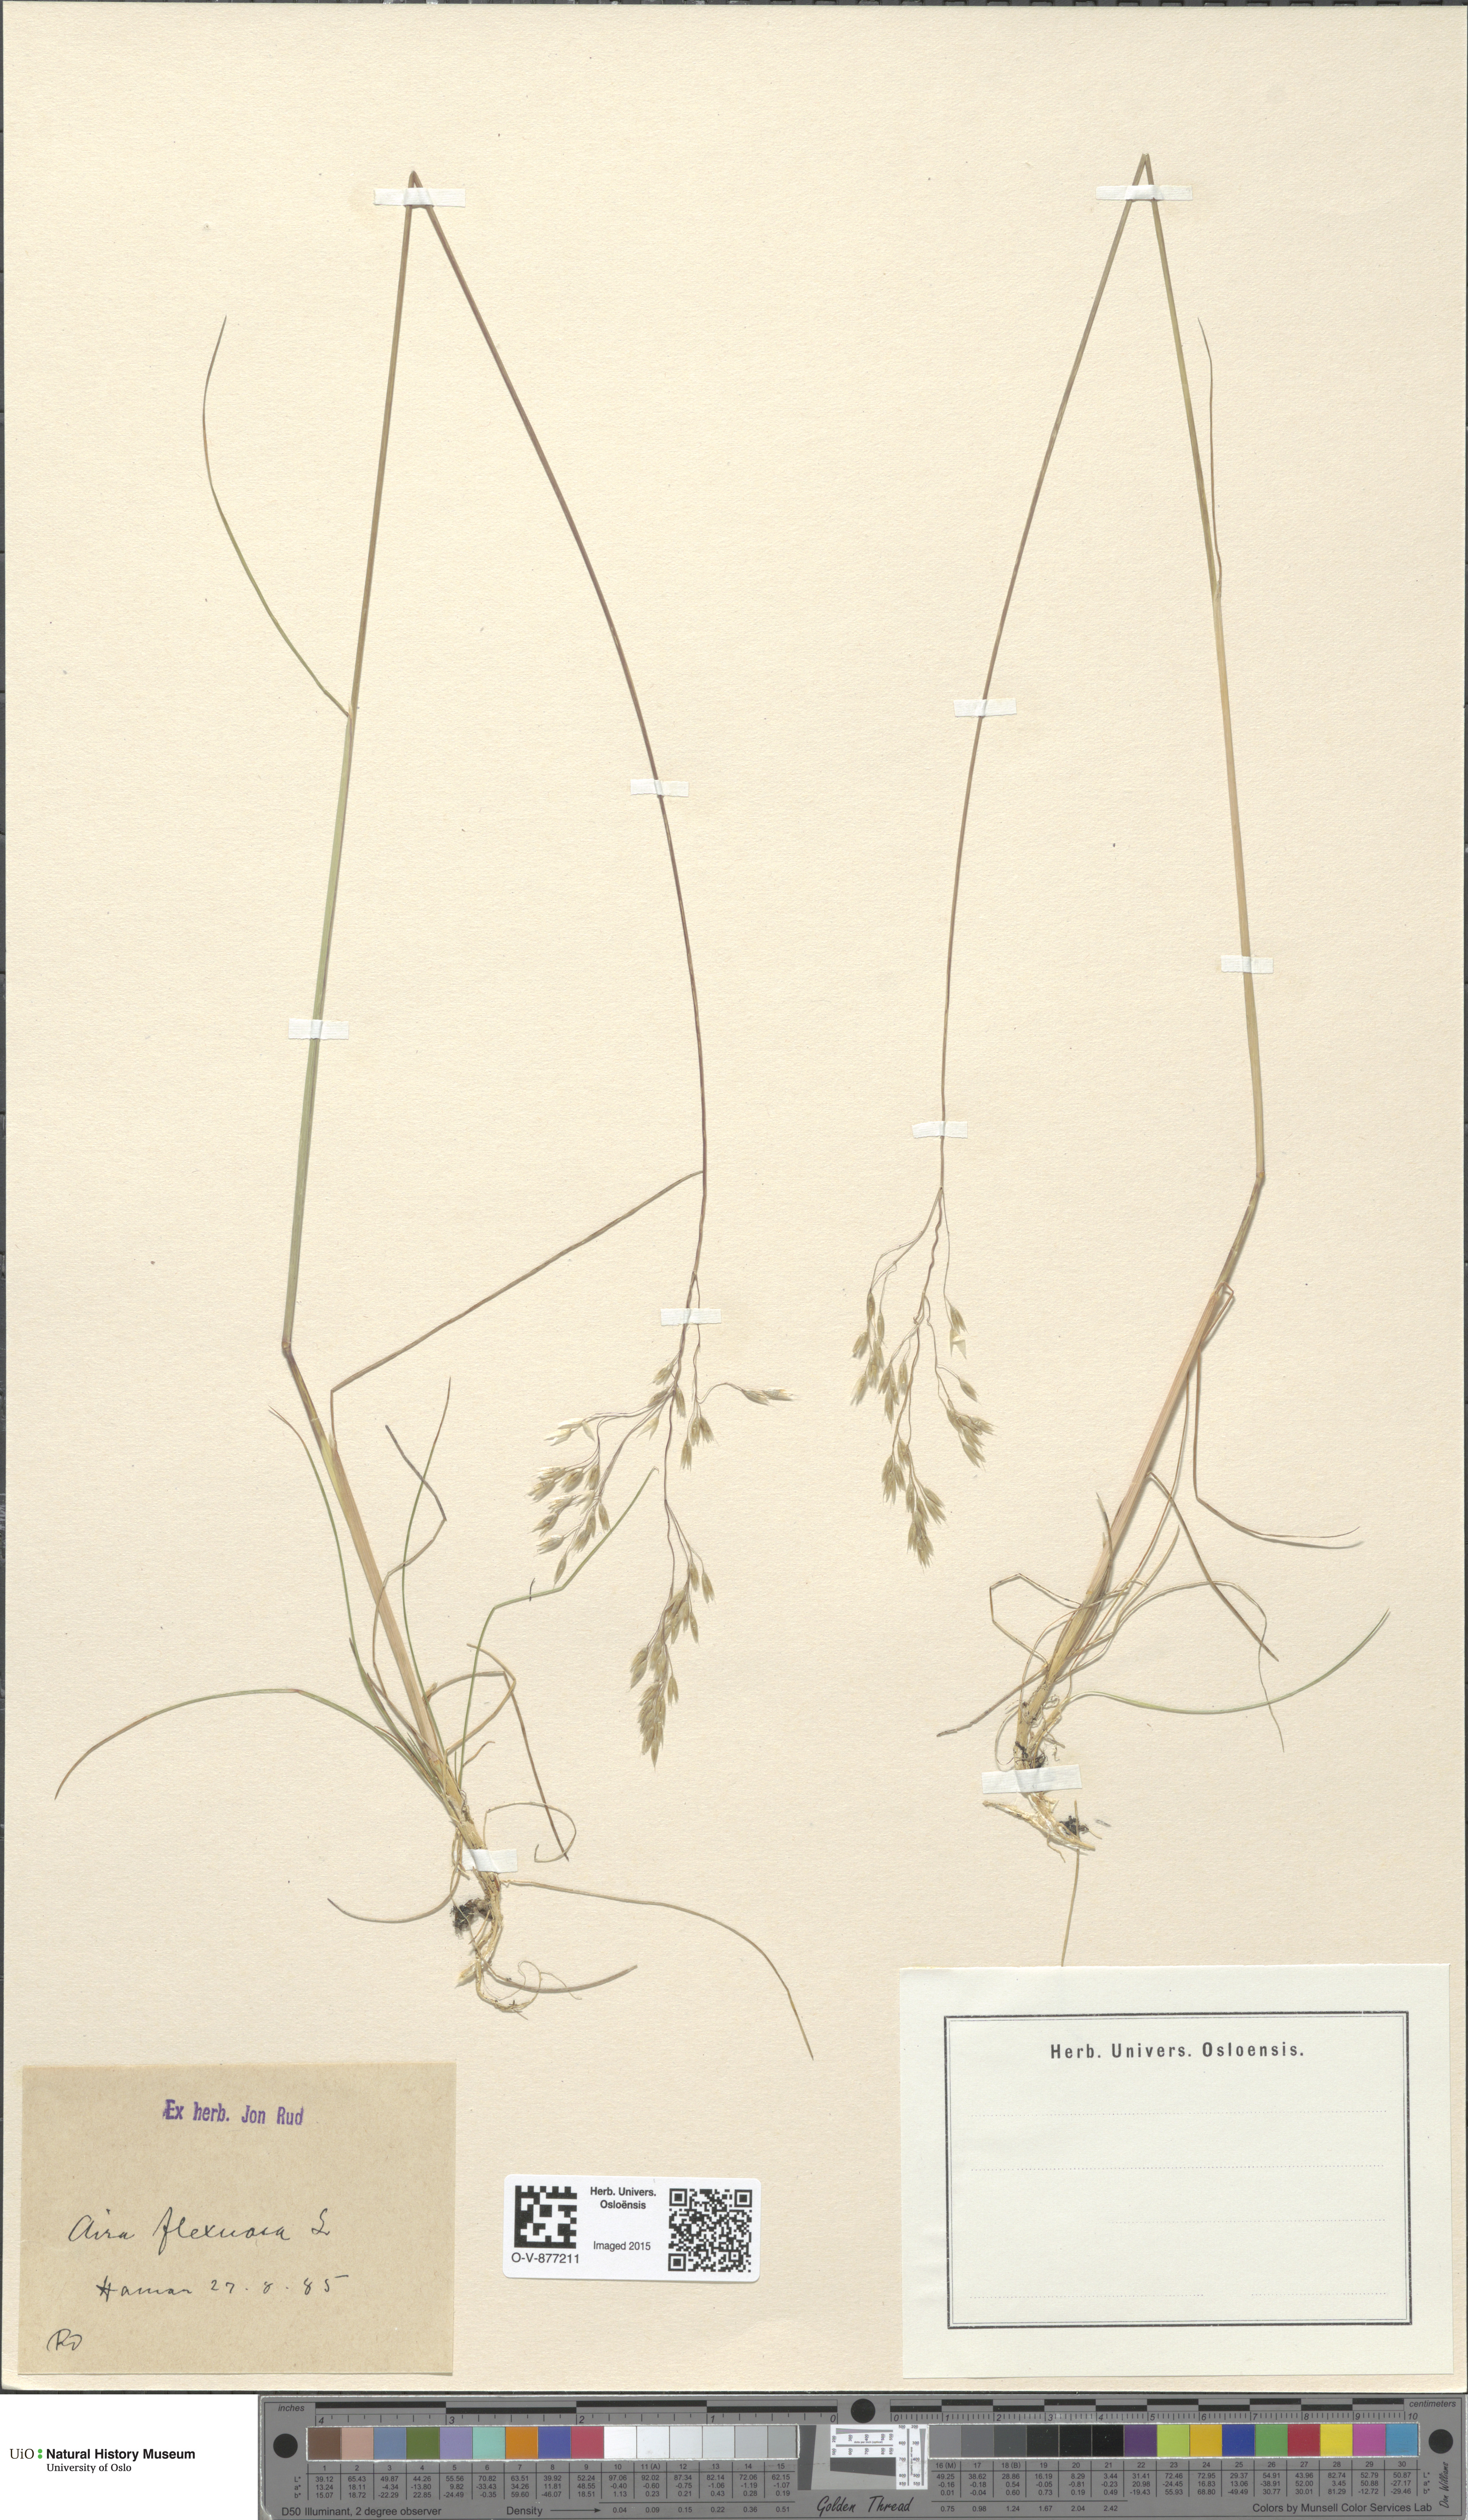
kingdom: Plantae
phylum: Tracheophyta
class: Liliopsida
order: Poales
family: Poaceae
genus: Avenella
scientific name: Avenella flexuosa
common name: Wavy hairgrass
